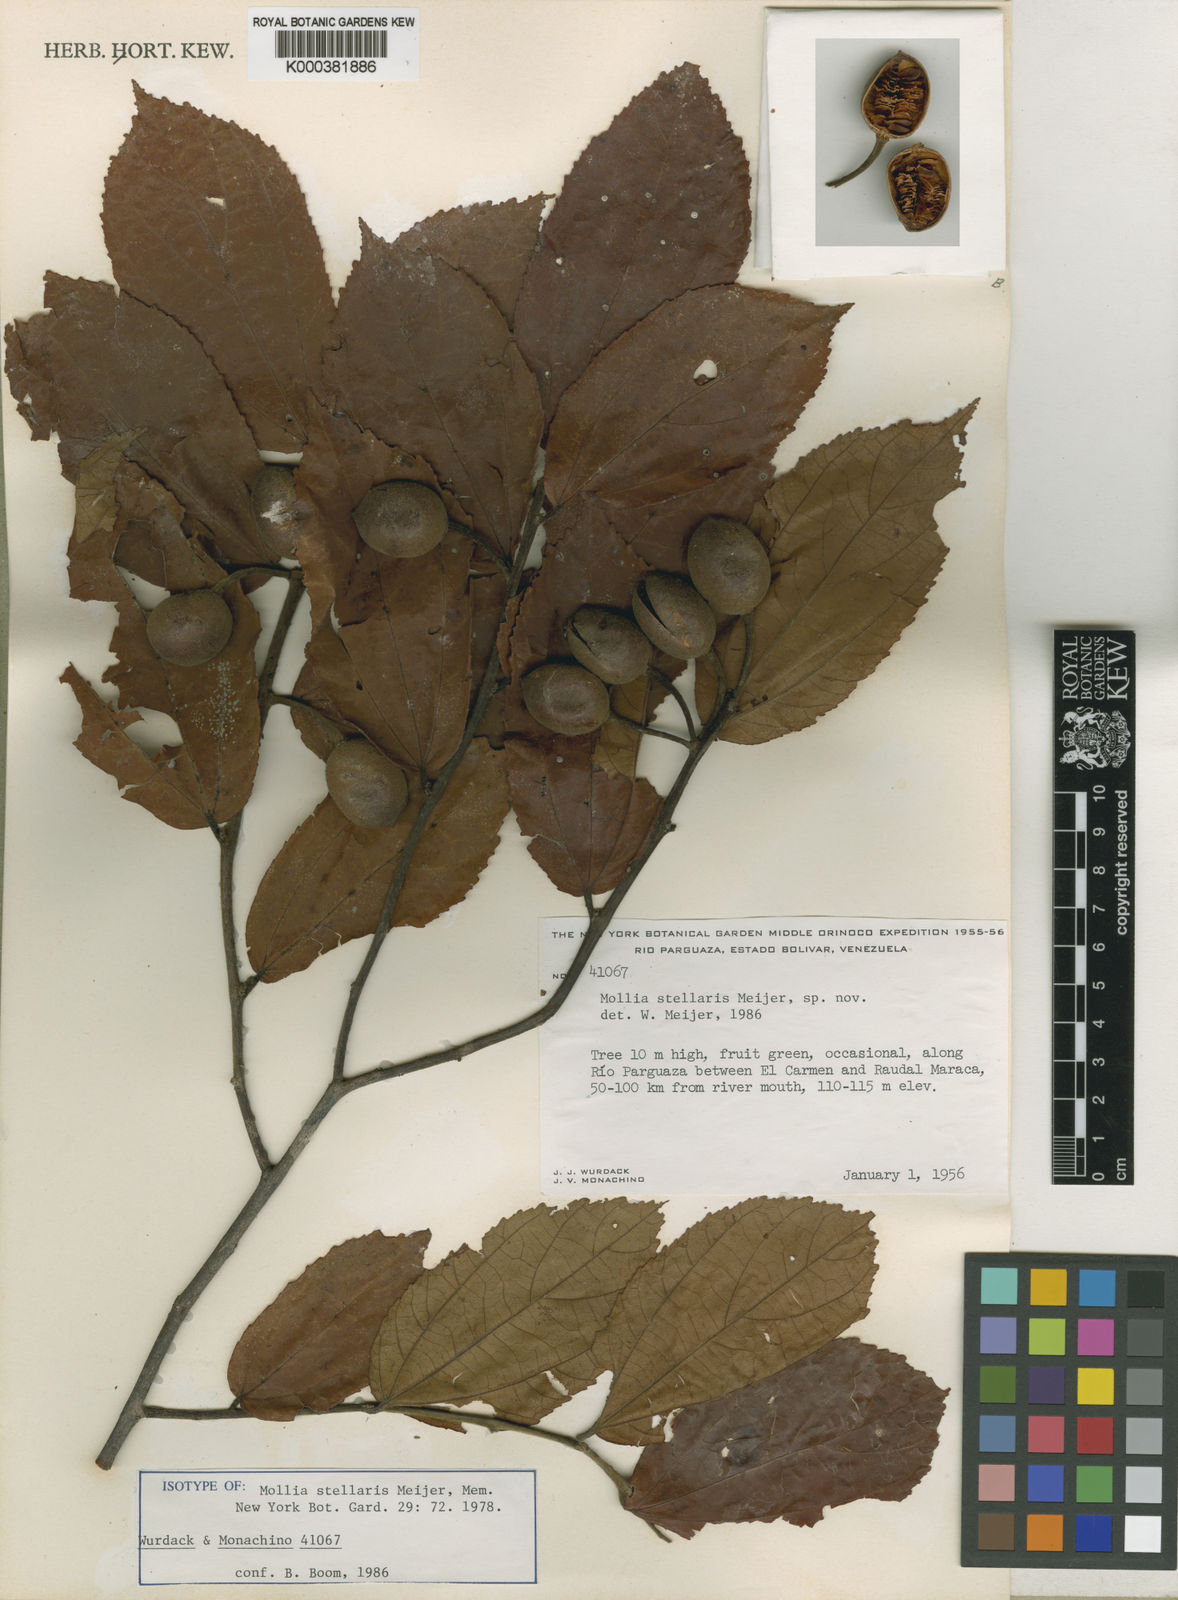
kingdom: Plantae
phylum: Tracheophyta
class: Magnoliopsida
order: Malvales
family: Malvaceae
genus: Mollia
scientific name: Mollia ulei
